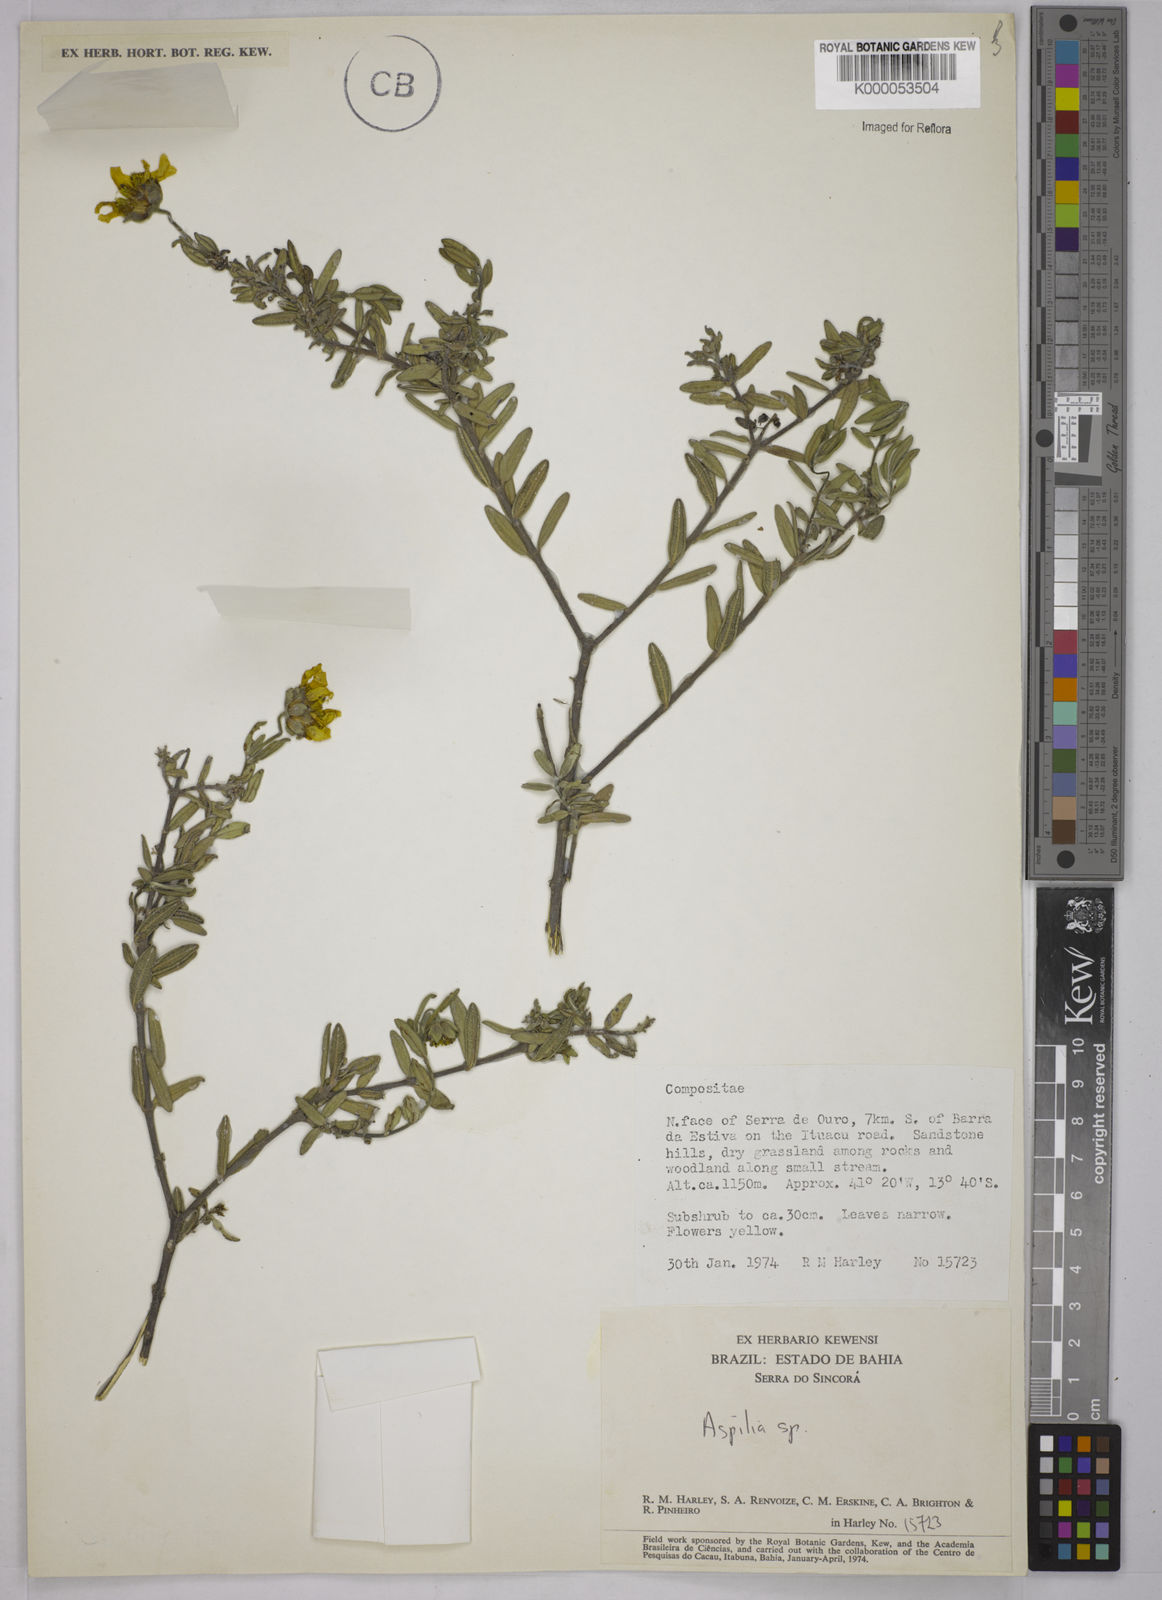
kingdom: Plantae
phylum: Tracheophyta
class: Magnoliopsida
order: Asterales
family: Asteraceae
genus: Aspilia
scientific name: Aspilia foliosa
